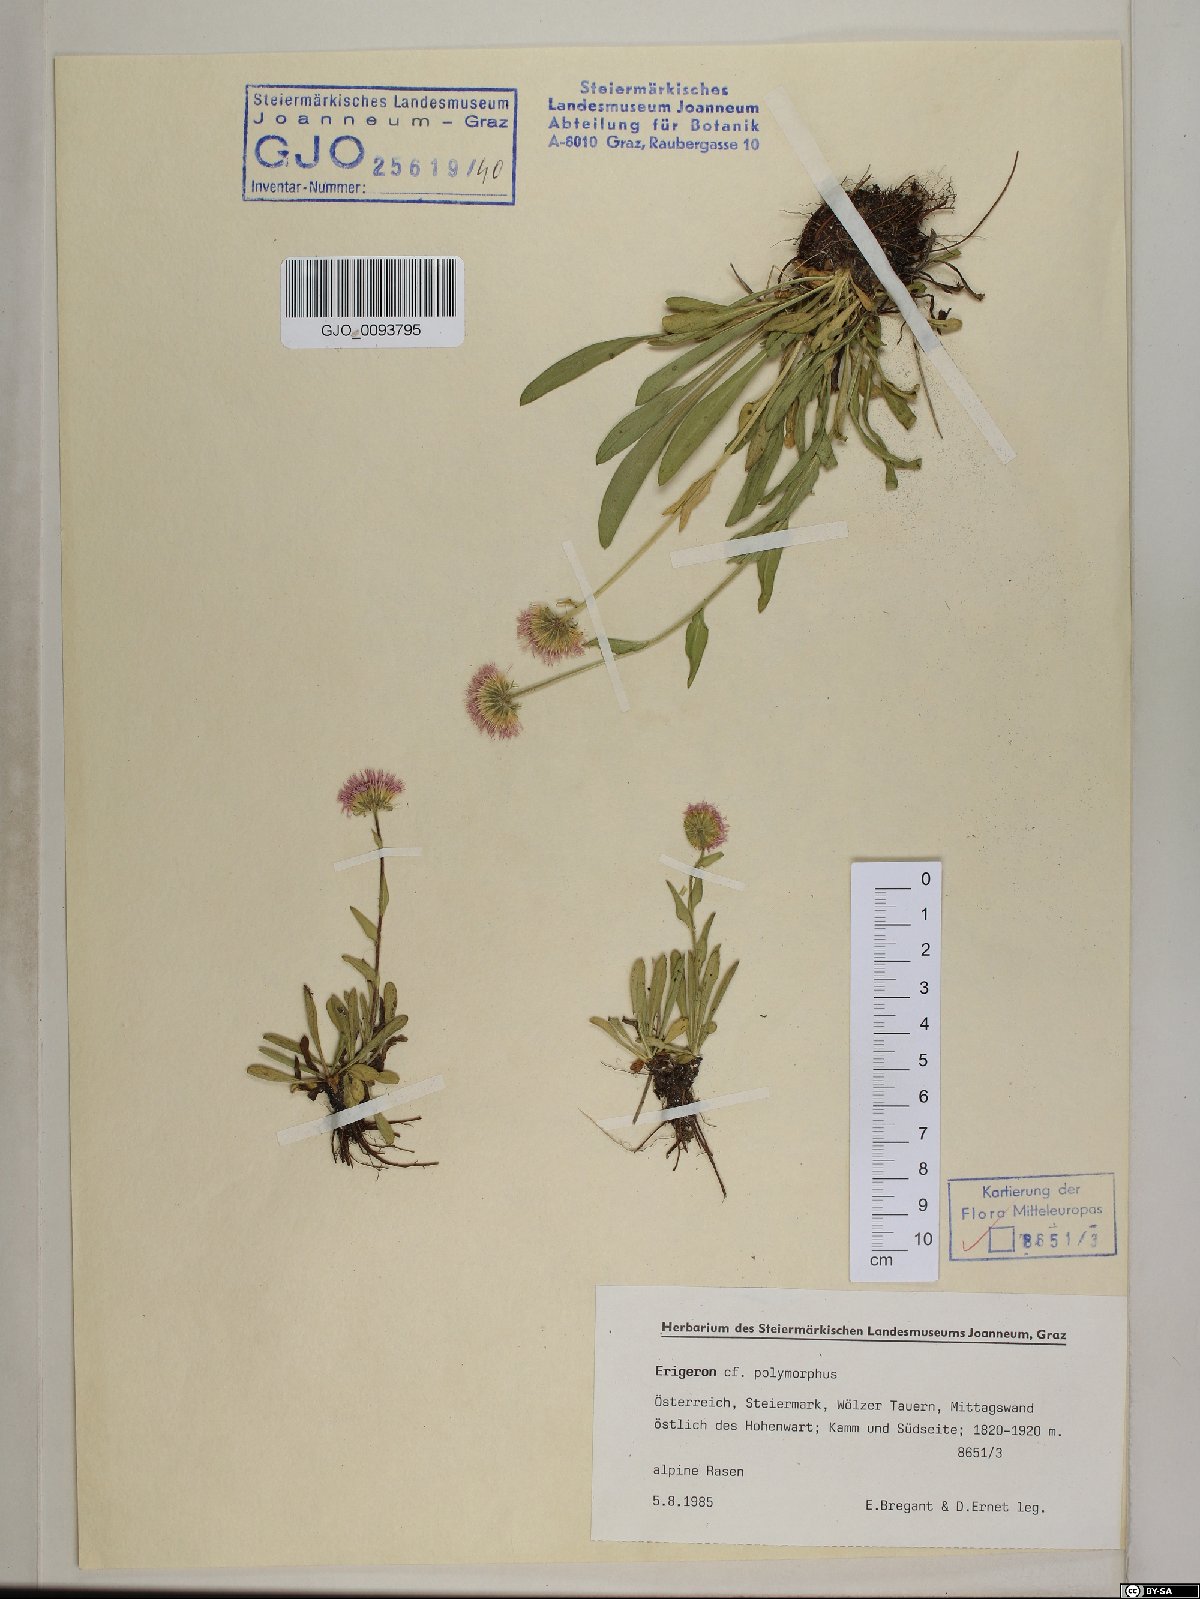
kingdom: Plantae
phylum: Tracheophyta
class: Magnoliopsida
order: Asterales
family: Asteraceae
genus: Erigeron
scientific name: Erigeron alpinus
